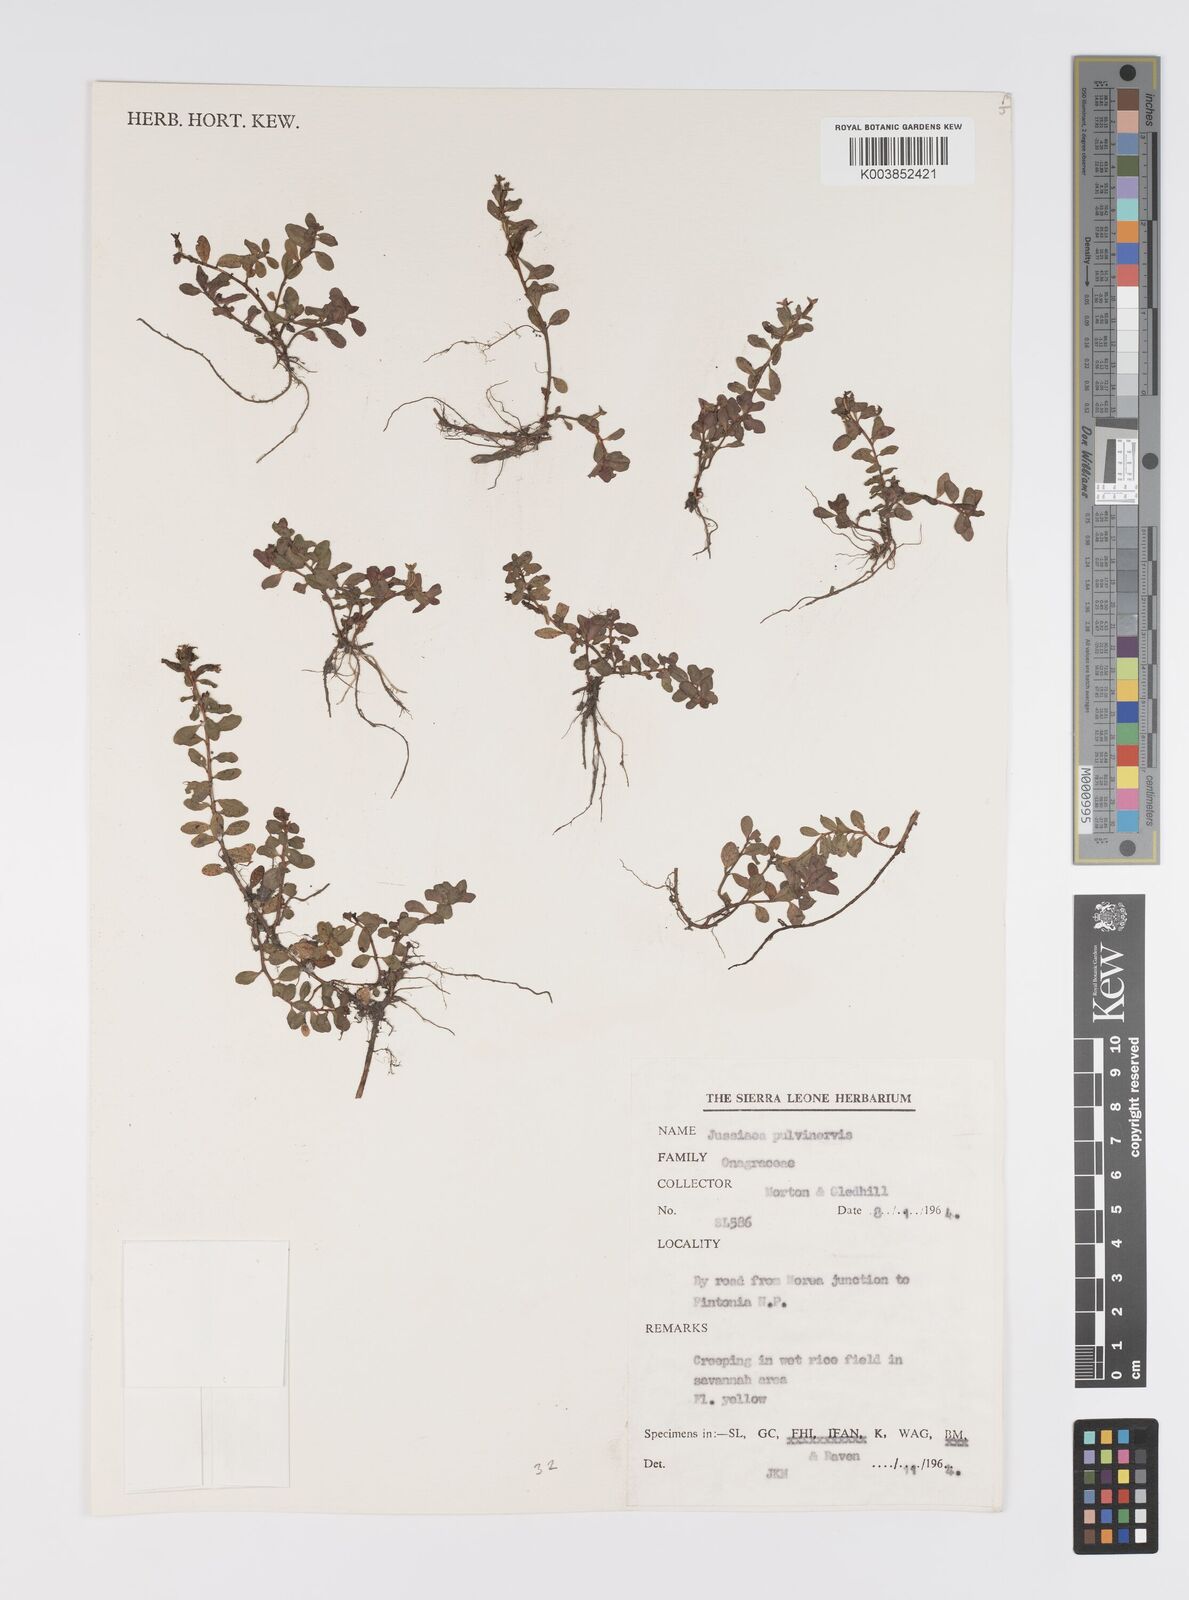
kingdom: Plantae
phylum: Tracheophyta
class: Magnoliopsida
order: Myrtales
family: Onagraceae
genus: Ludwigia
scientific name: Ludwigia senegalensis
